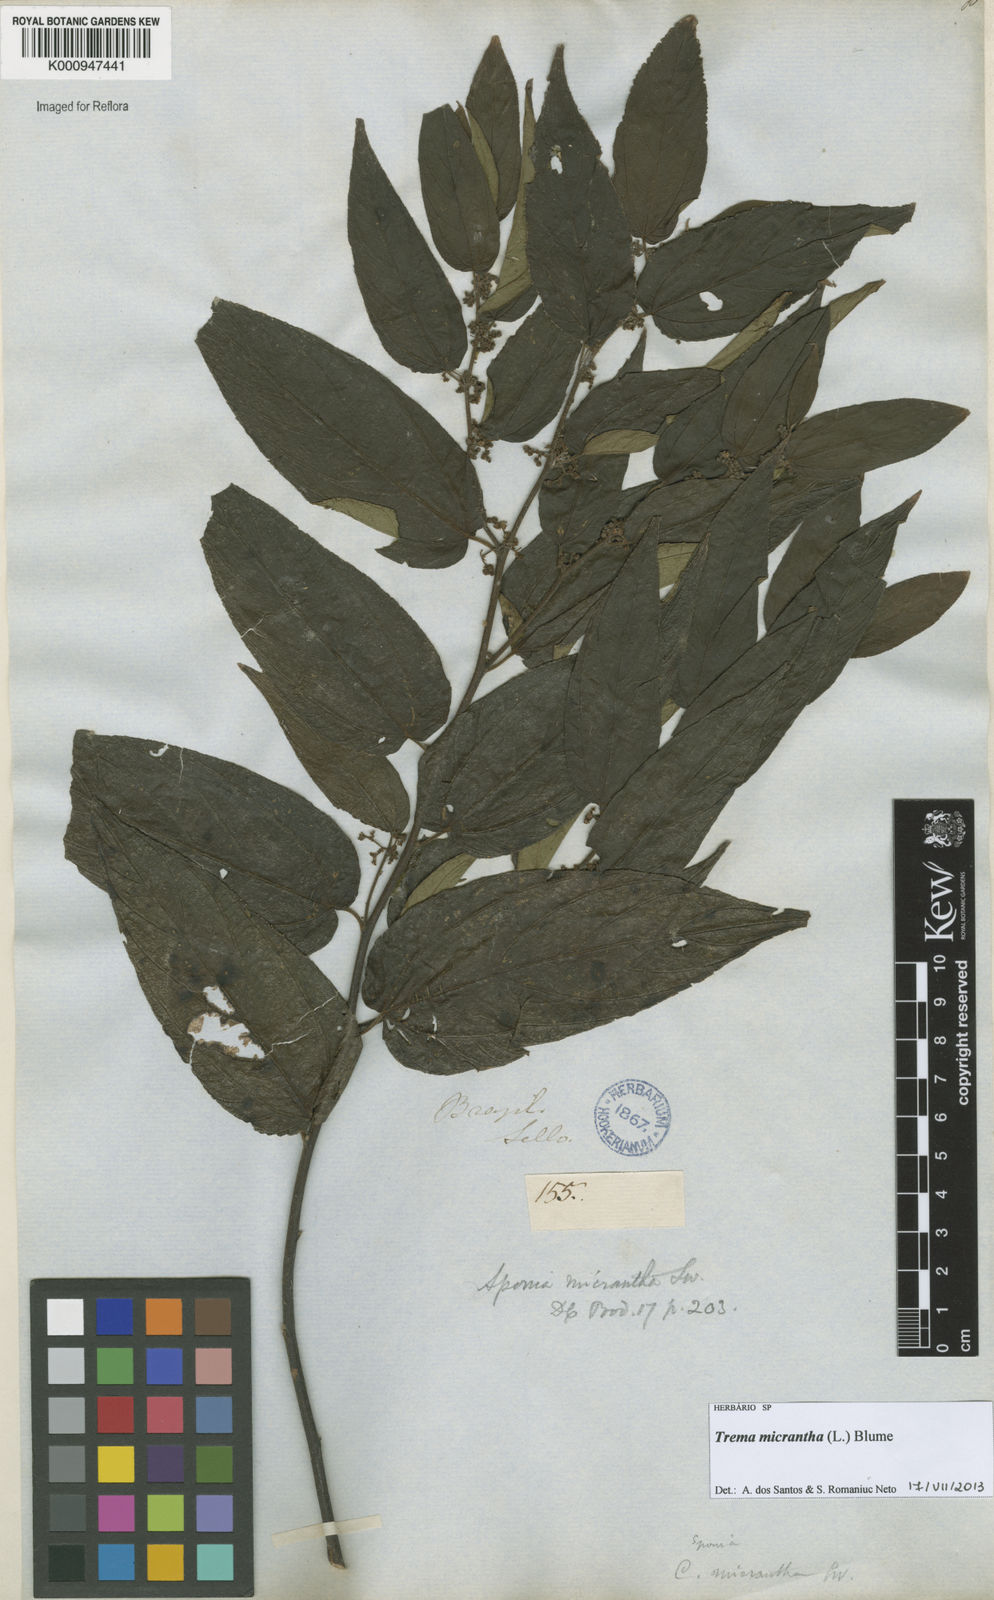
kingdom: Plantae
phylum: Tracheophyta
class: Magnoliopsida
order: Rosales
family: Cannabaceae
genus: Trema
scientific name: Trema micranthum
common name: Jamaican nettletree
